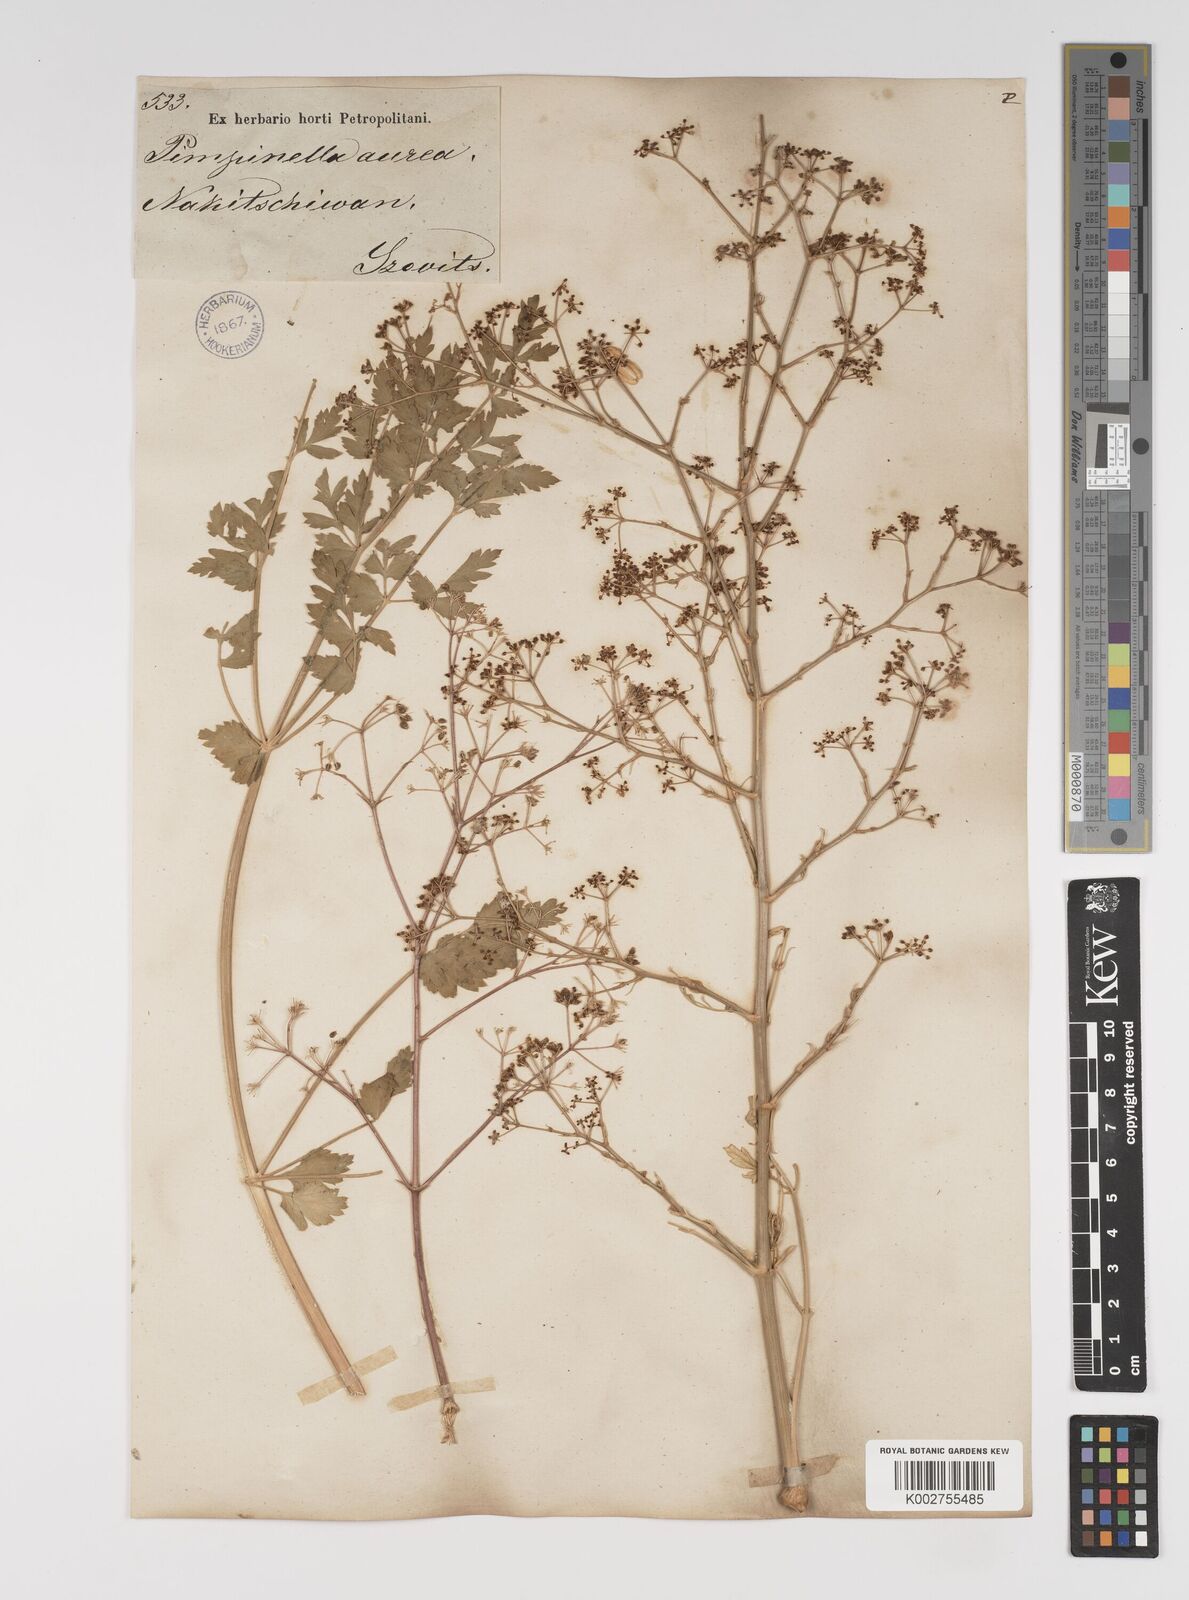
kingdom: Plantae
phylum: Tracheophyta
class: Magnoliopsida
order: Apiales
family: Apiaceae
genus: Pimpinella
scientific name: Pimpinella aurea
